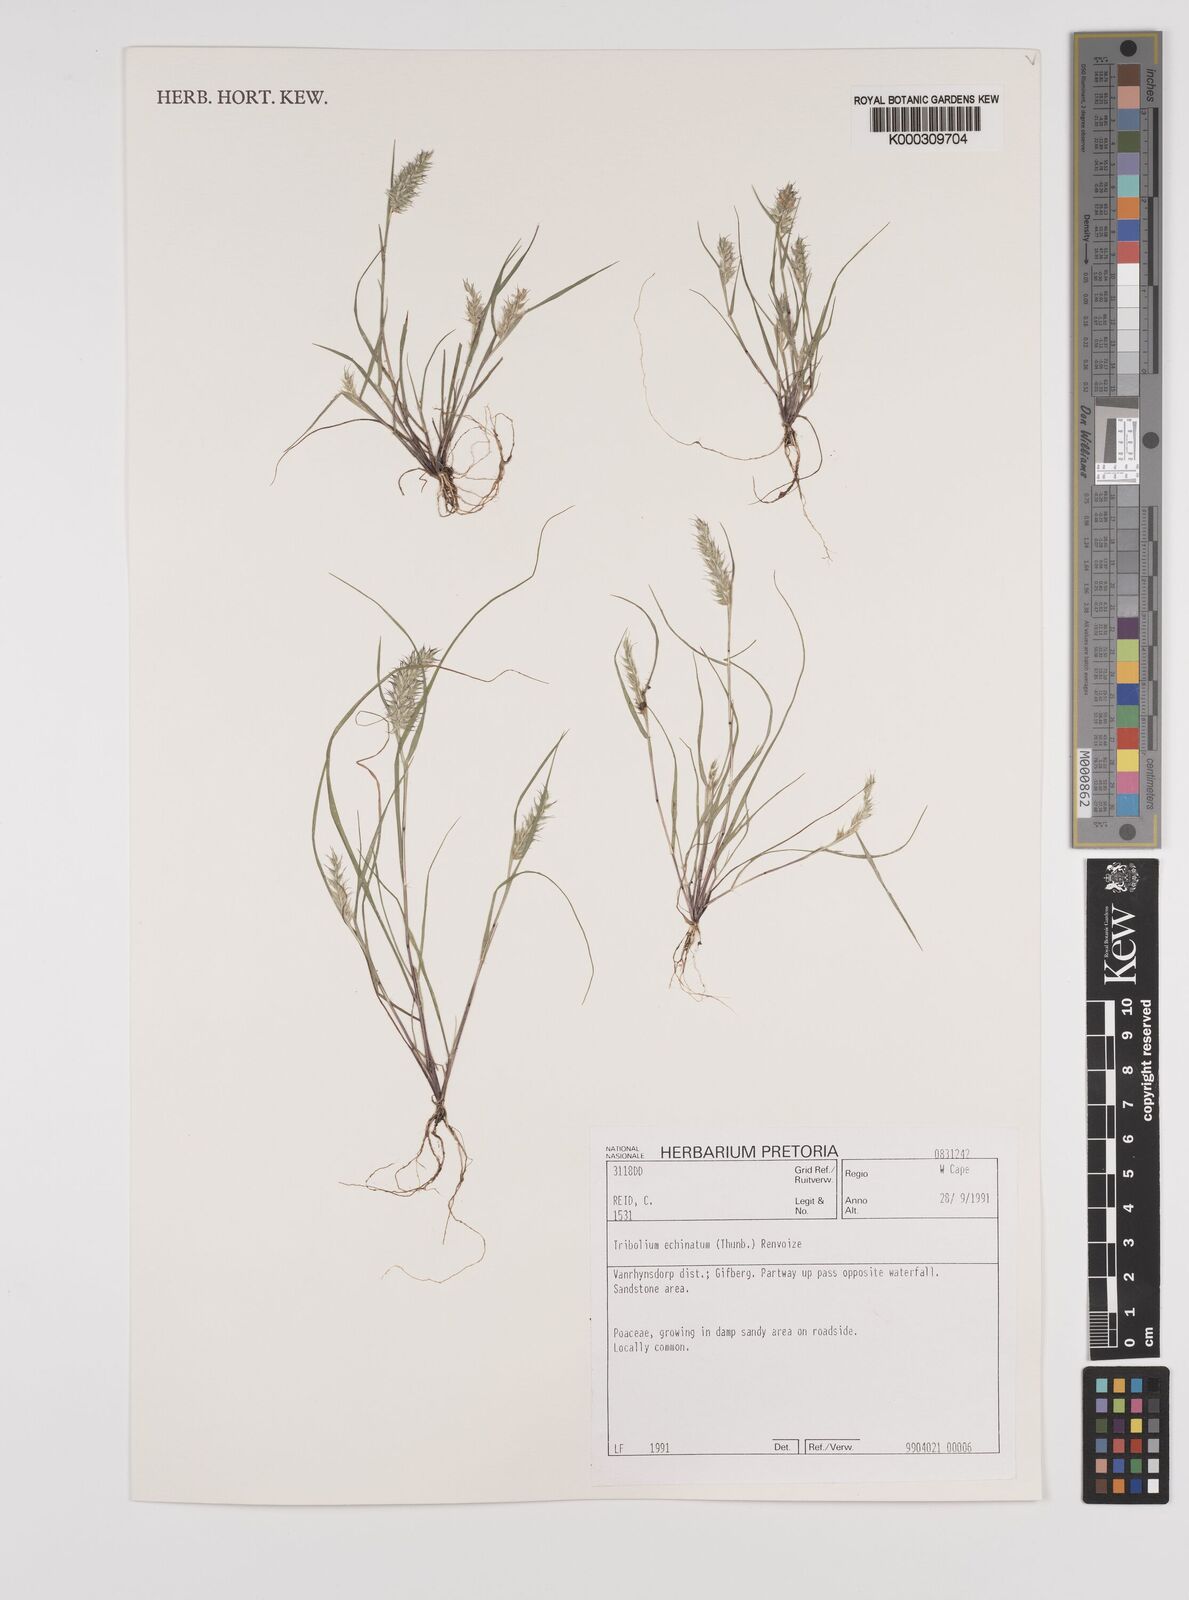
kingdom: Plantae
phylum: Tracheophyta
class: Liliopsida
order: Poales
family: Poaceae
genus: Tribolium
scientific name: Tribolium echinatum
